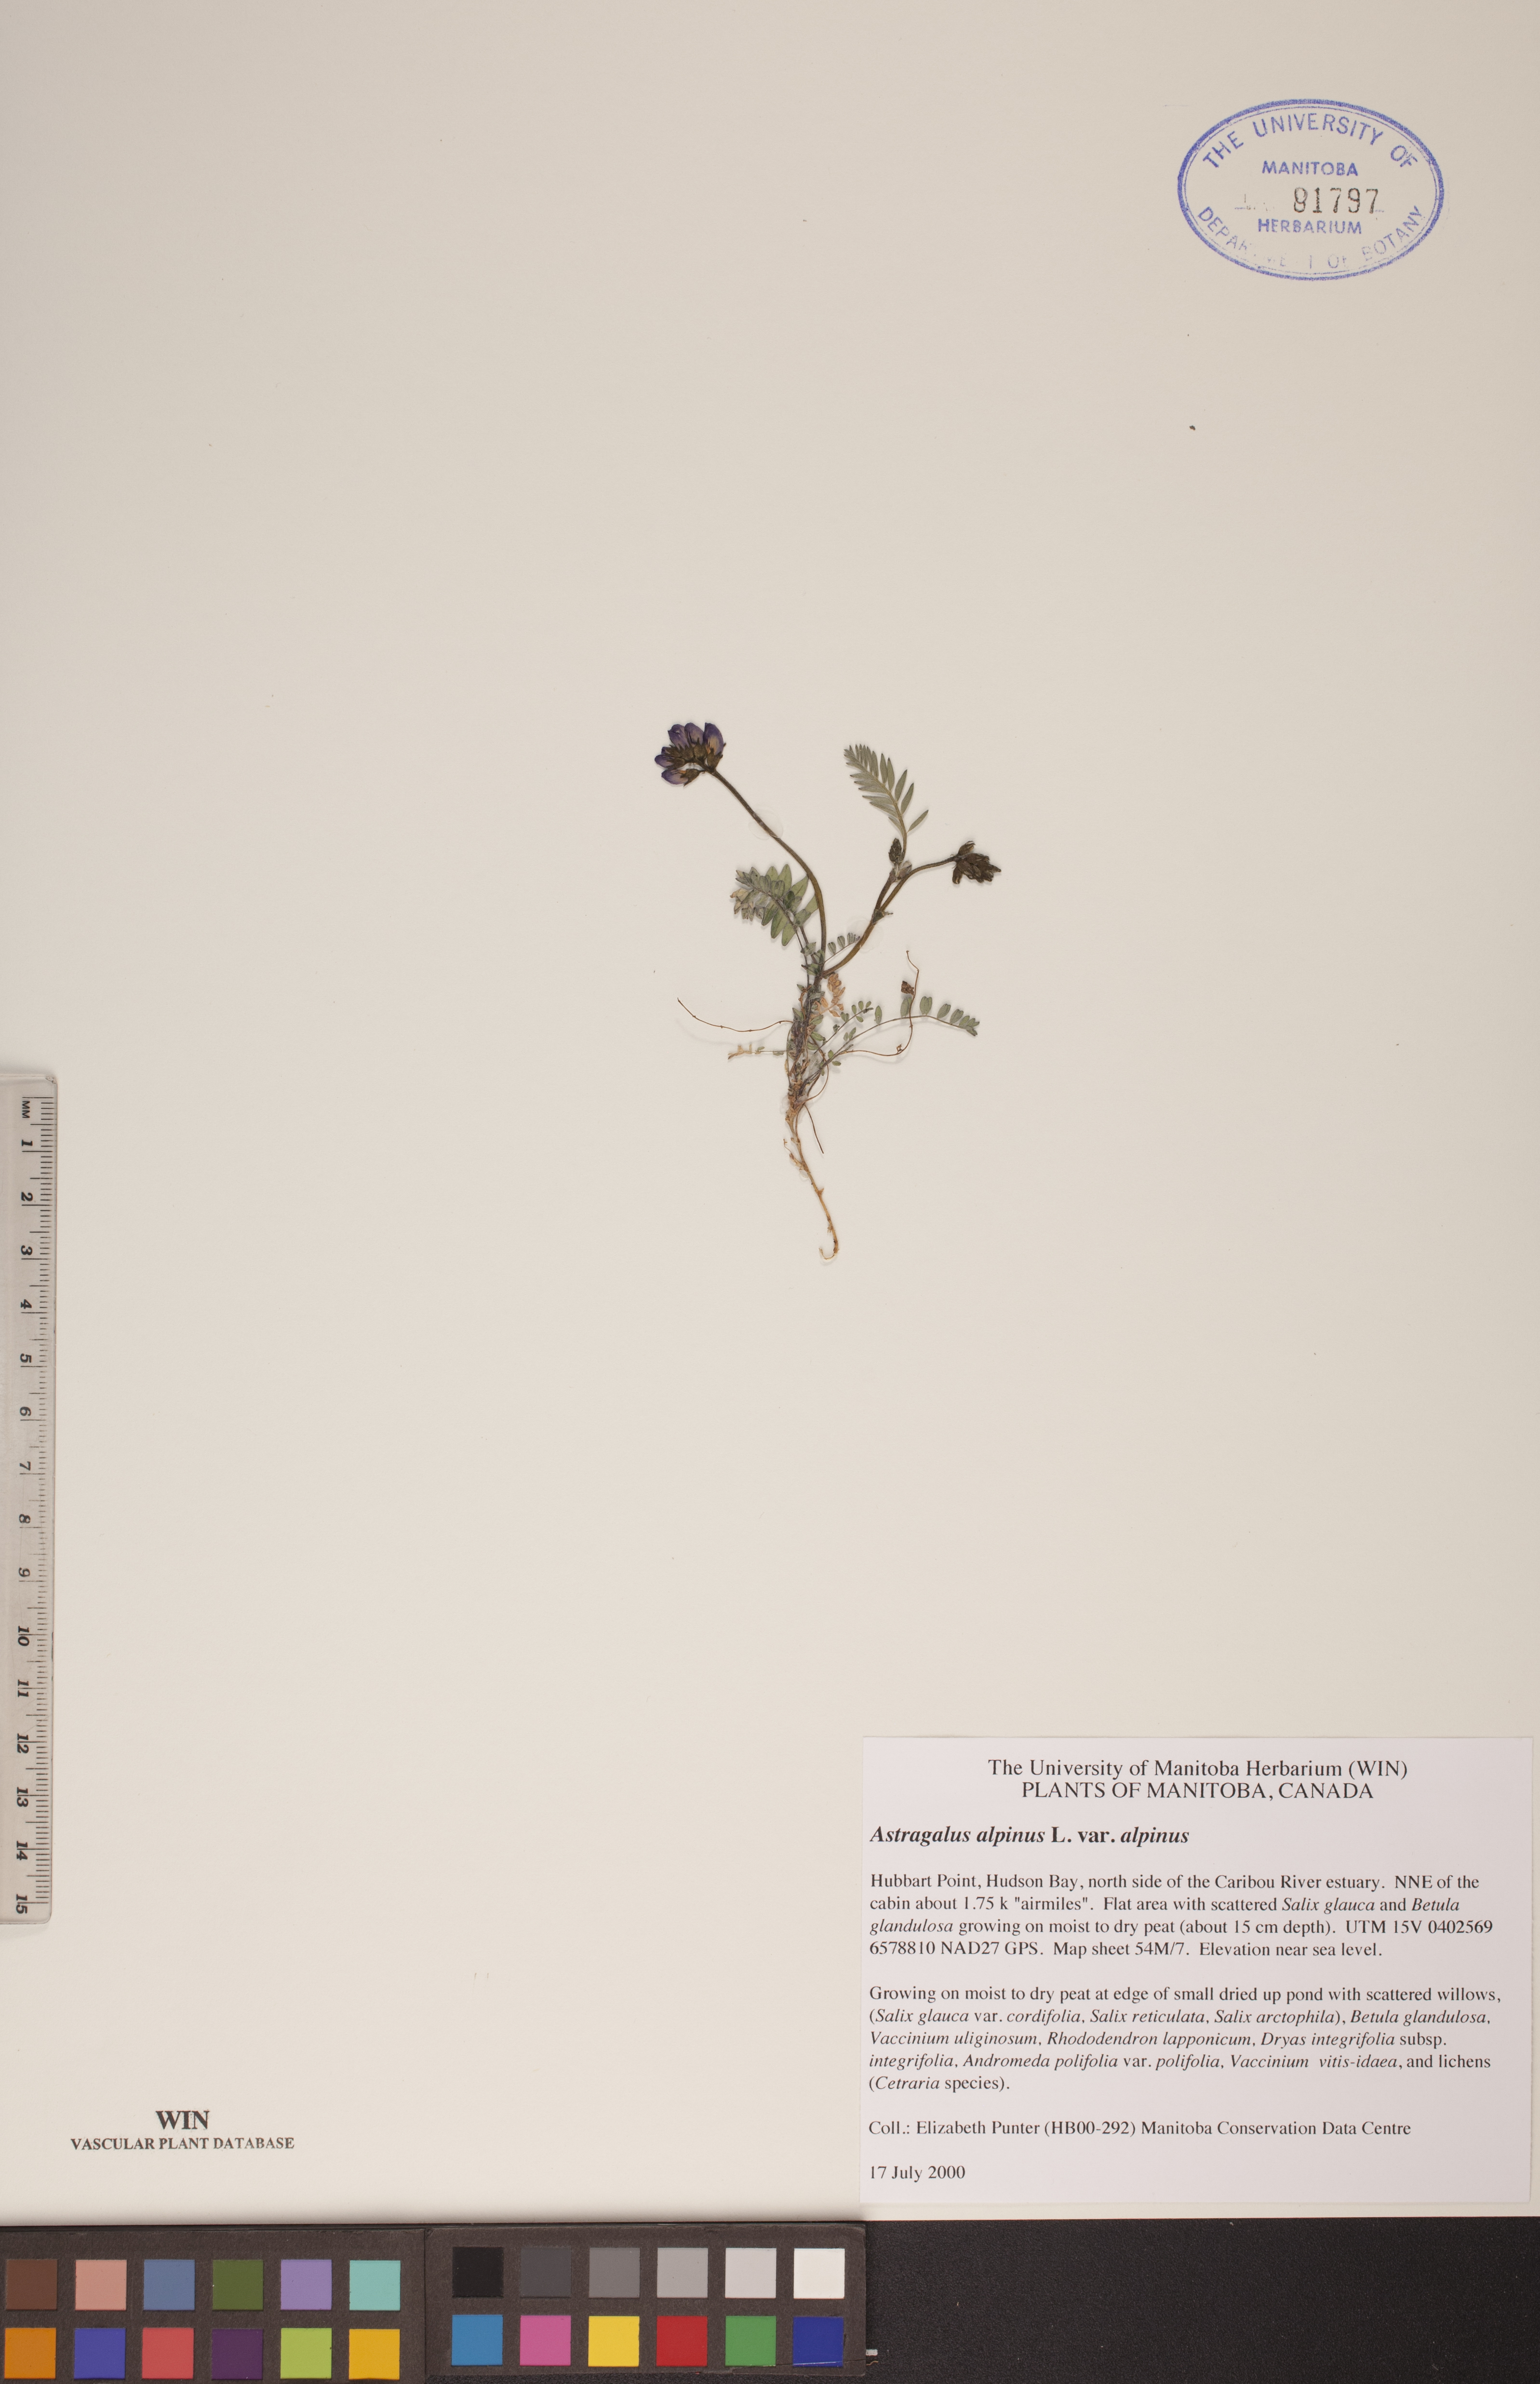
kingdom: Plantae
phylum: Tracheophyta
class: Magnoliopsida
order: Fabales
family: Fabaceae
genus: Astragalus
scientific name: Astragalus alpinus
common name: Alpine milk-vetch
